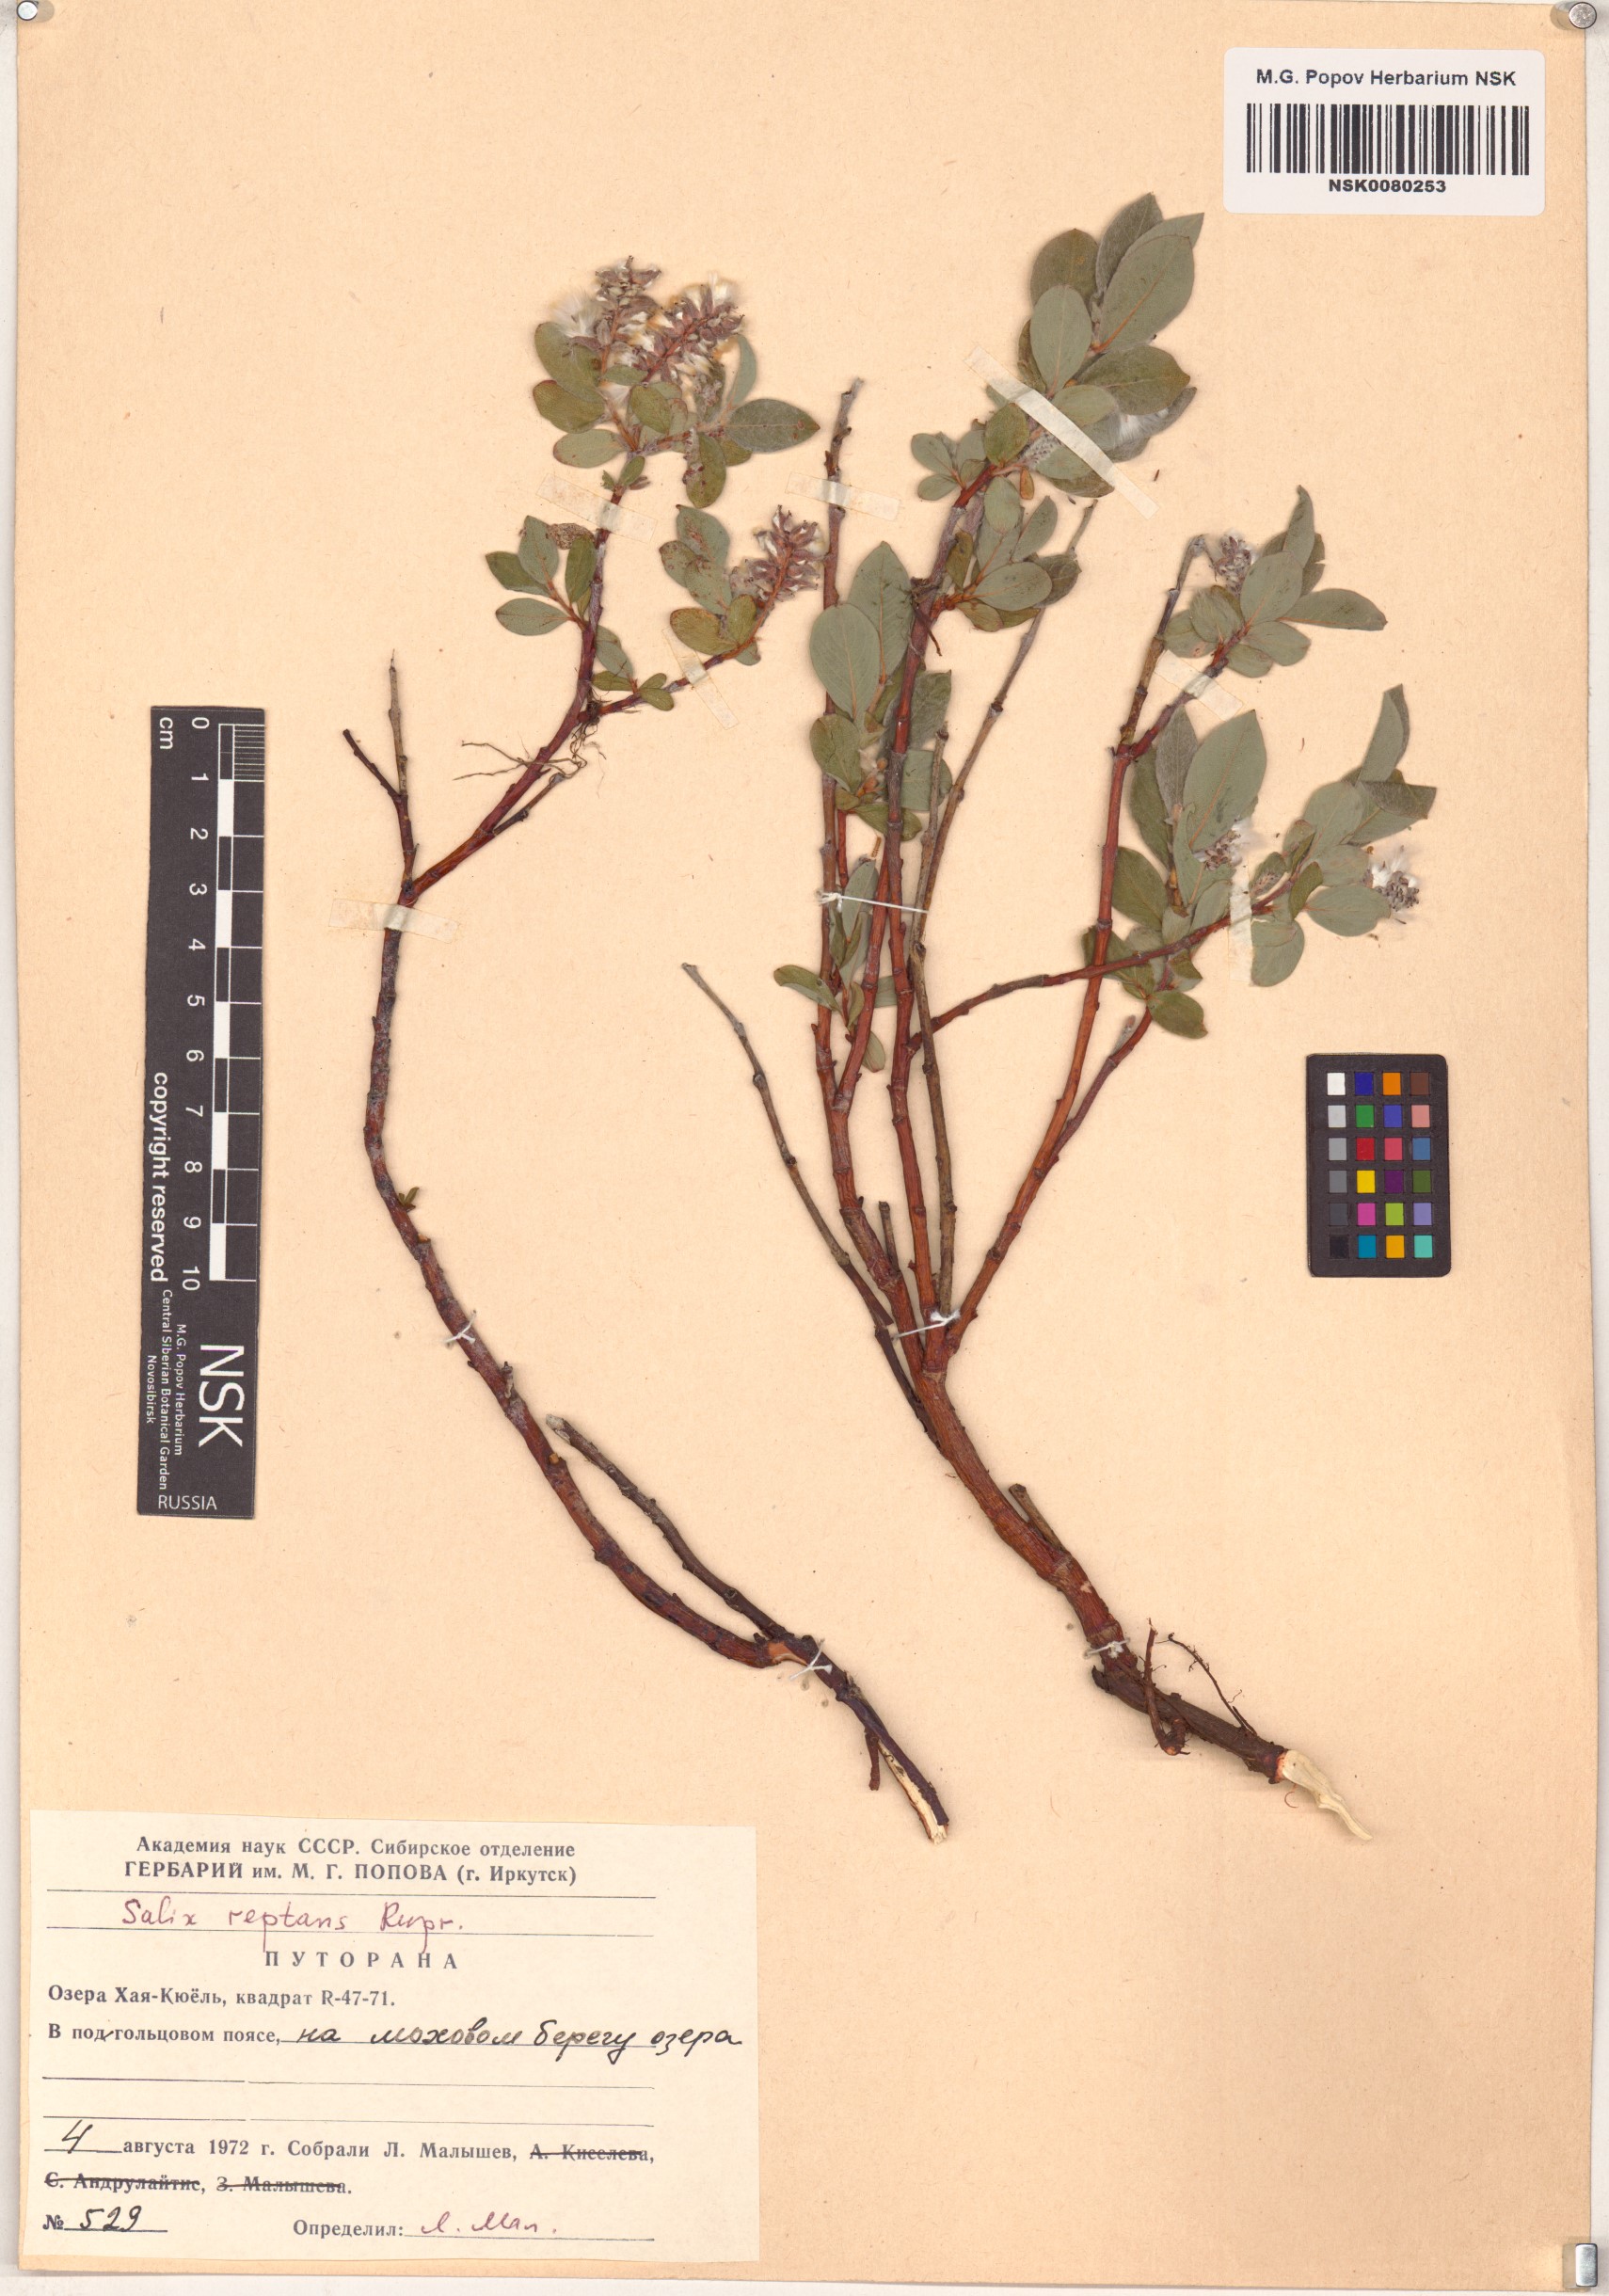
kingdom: Plantae
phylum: Tracheophyta
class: Magnoliopsida
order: Malpighiales
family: Salicaceae
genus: Salix
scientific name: Salix reptans
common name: Arctic creeping willow
